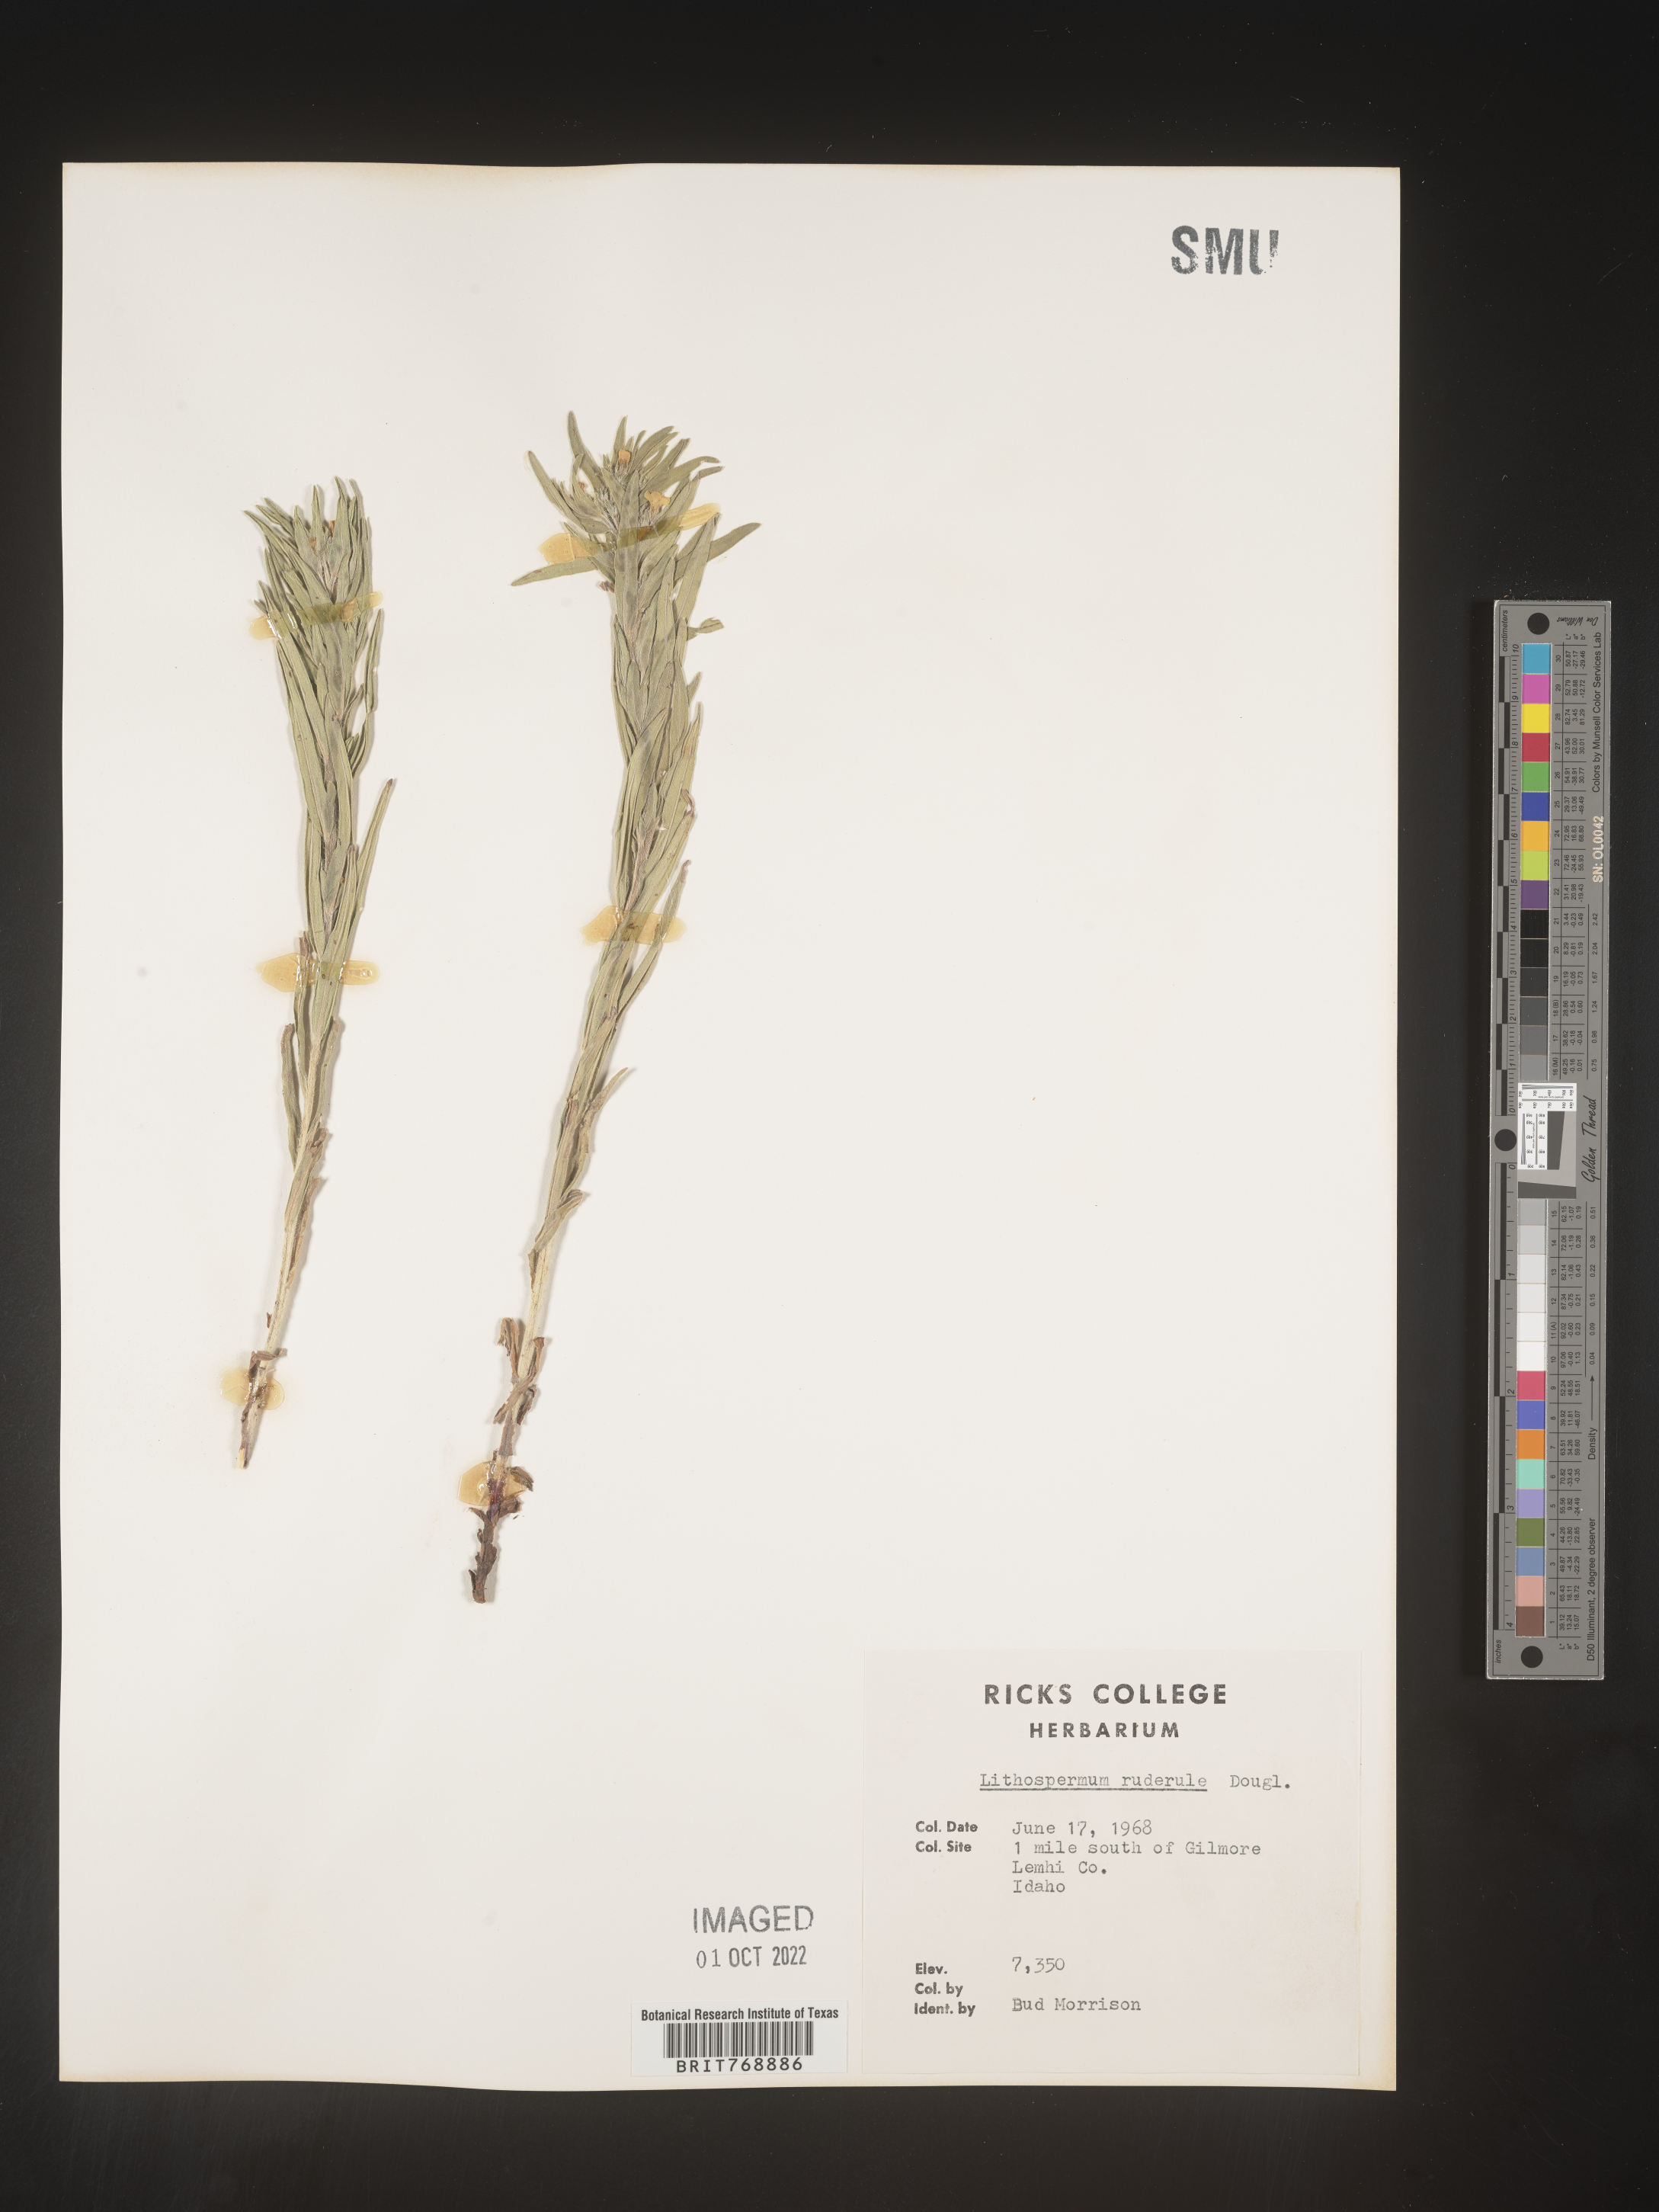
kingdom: Plantae
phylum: Tracheophyta
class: Magnoliopsida
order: Boraginales
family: Boraginaceae
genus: Lithospermum
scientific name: Lithospermum
